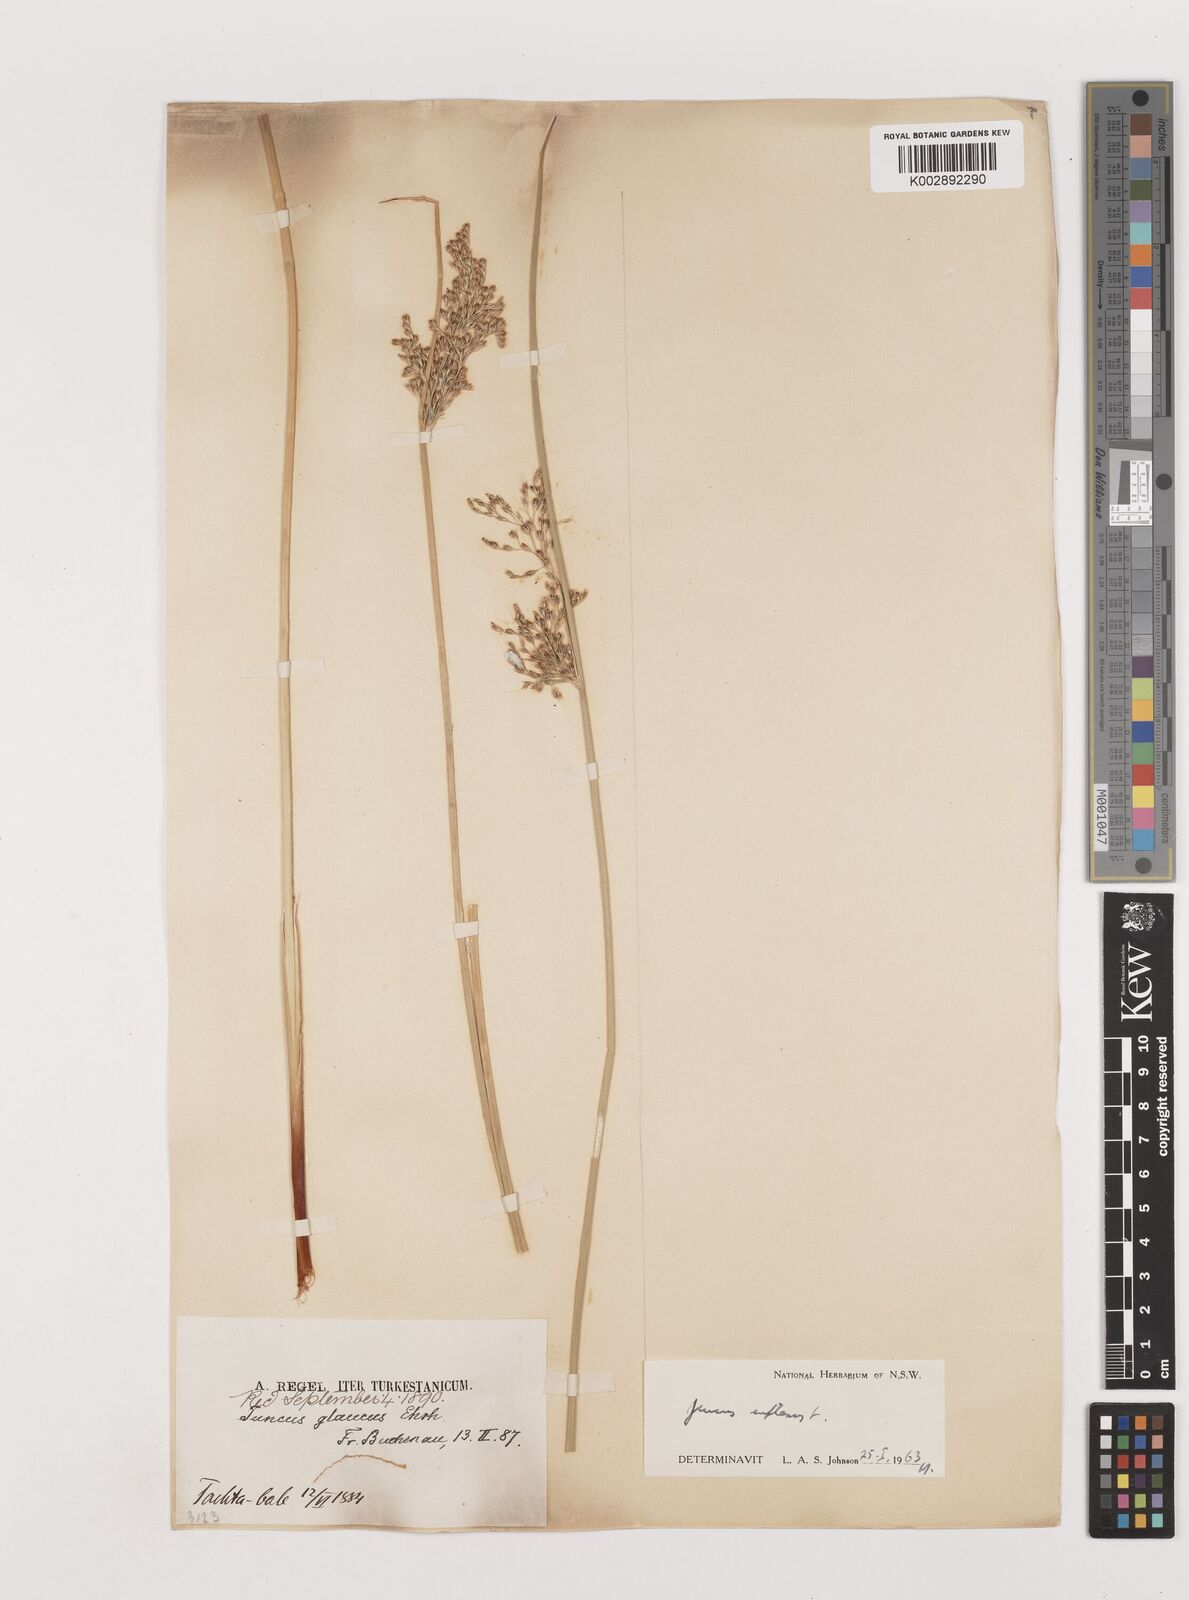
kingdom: Plantae
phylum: Tracheophyta
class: Liliopsida
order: Poales
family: Juncaceae
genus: Juncus
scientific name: Juncus inflexus
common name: Hard rush
